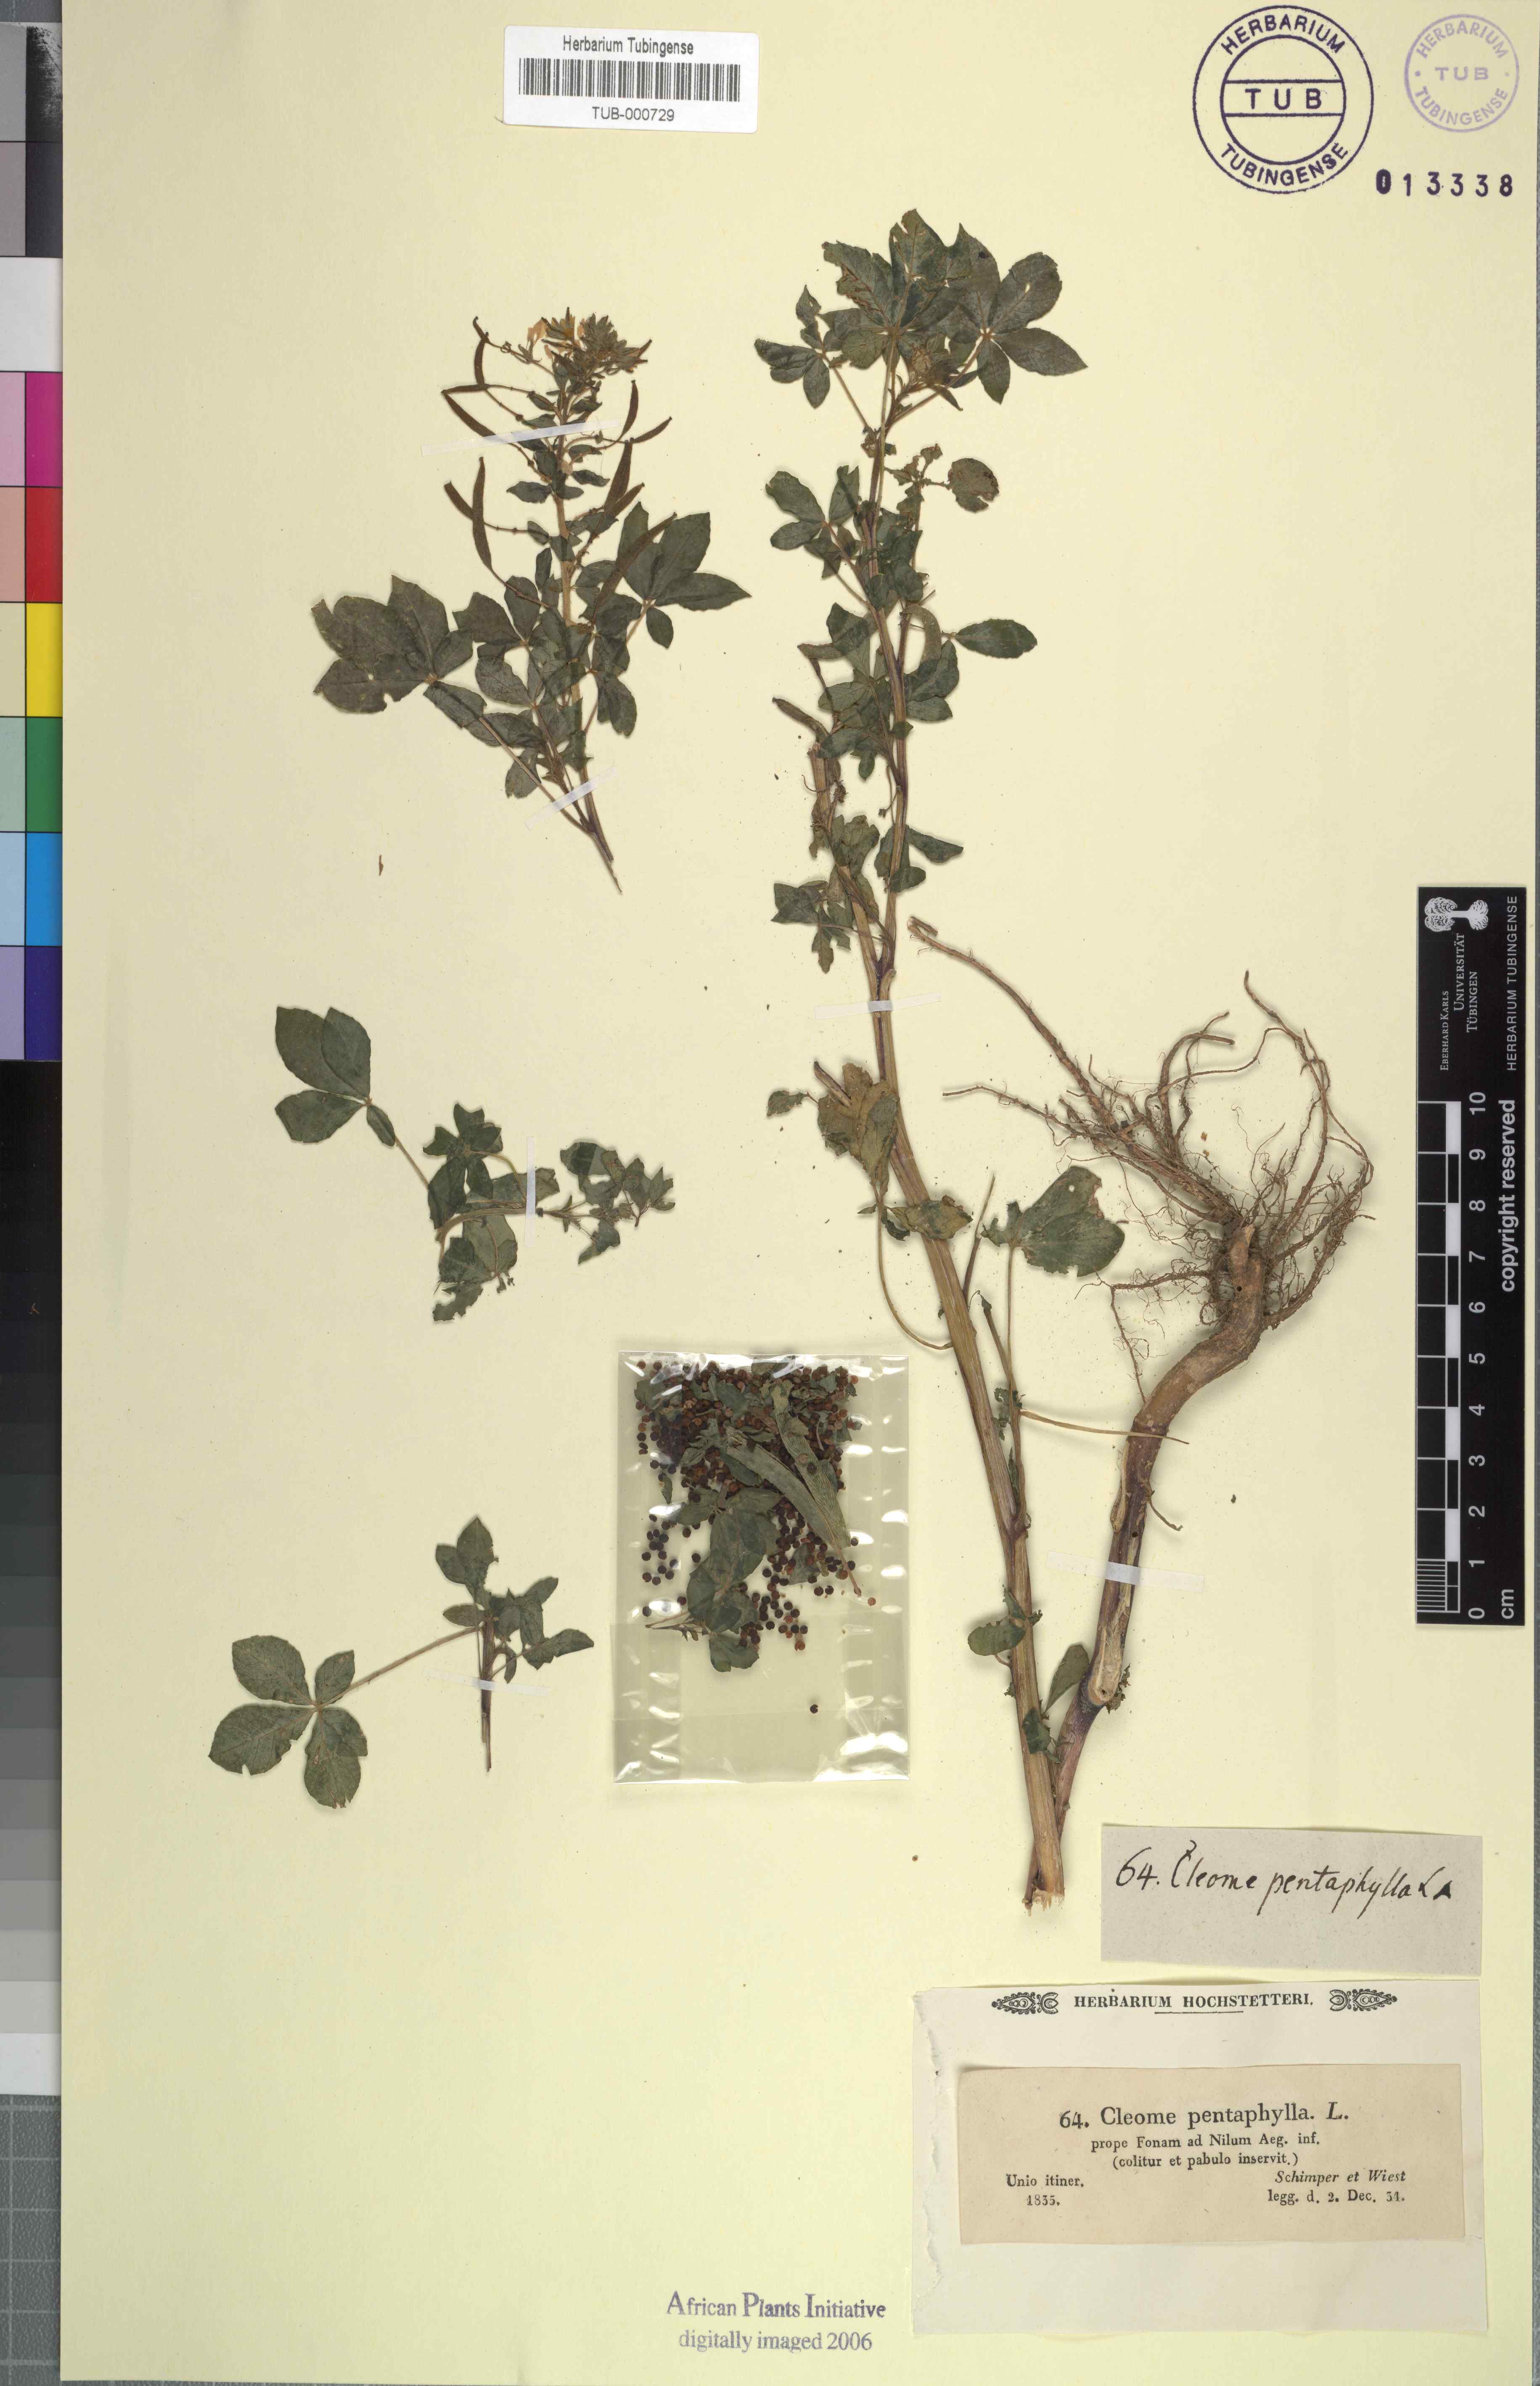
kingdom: Plantae
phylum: Tracheophyta
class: Magnoliopsida
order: Brassicales
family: Cleomaceae
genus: Gynandropsis
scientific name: Gynandropsis gynandra
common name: Spiderwisp
